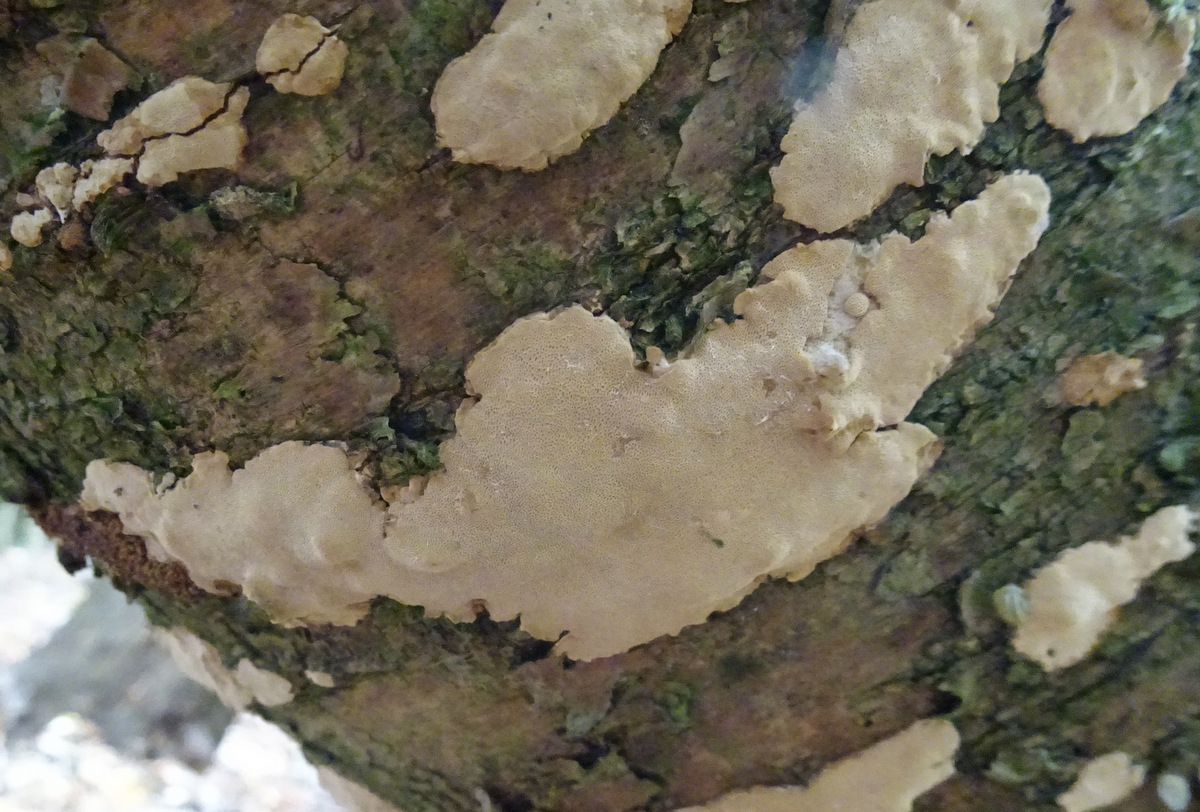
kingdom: Fungi
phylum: Basidiomycota
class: Agaricomycetes
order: Polyporales
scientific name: Polyporales
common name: poresvampordenen
